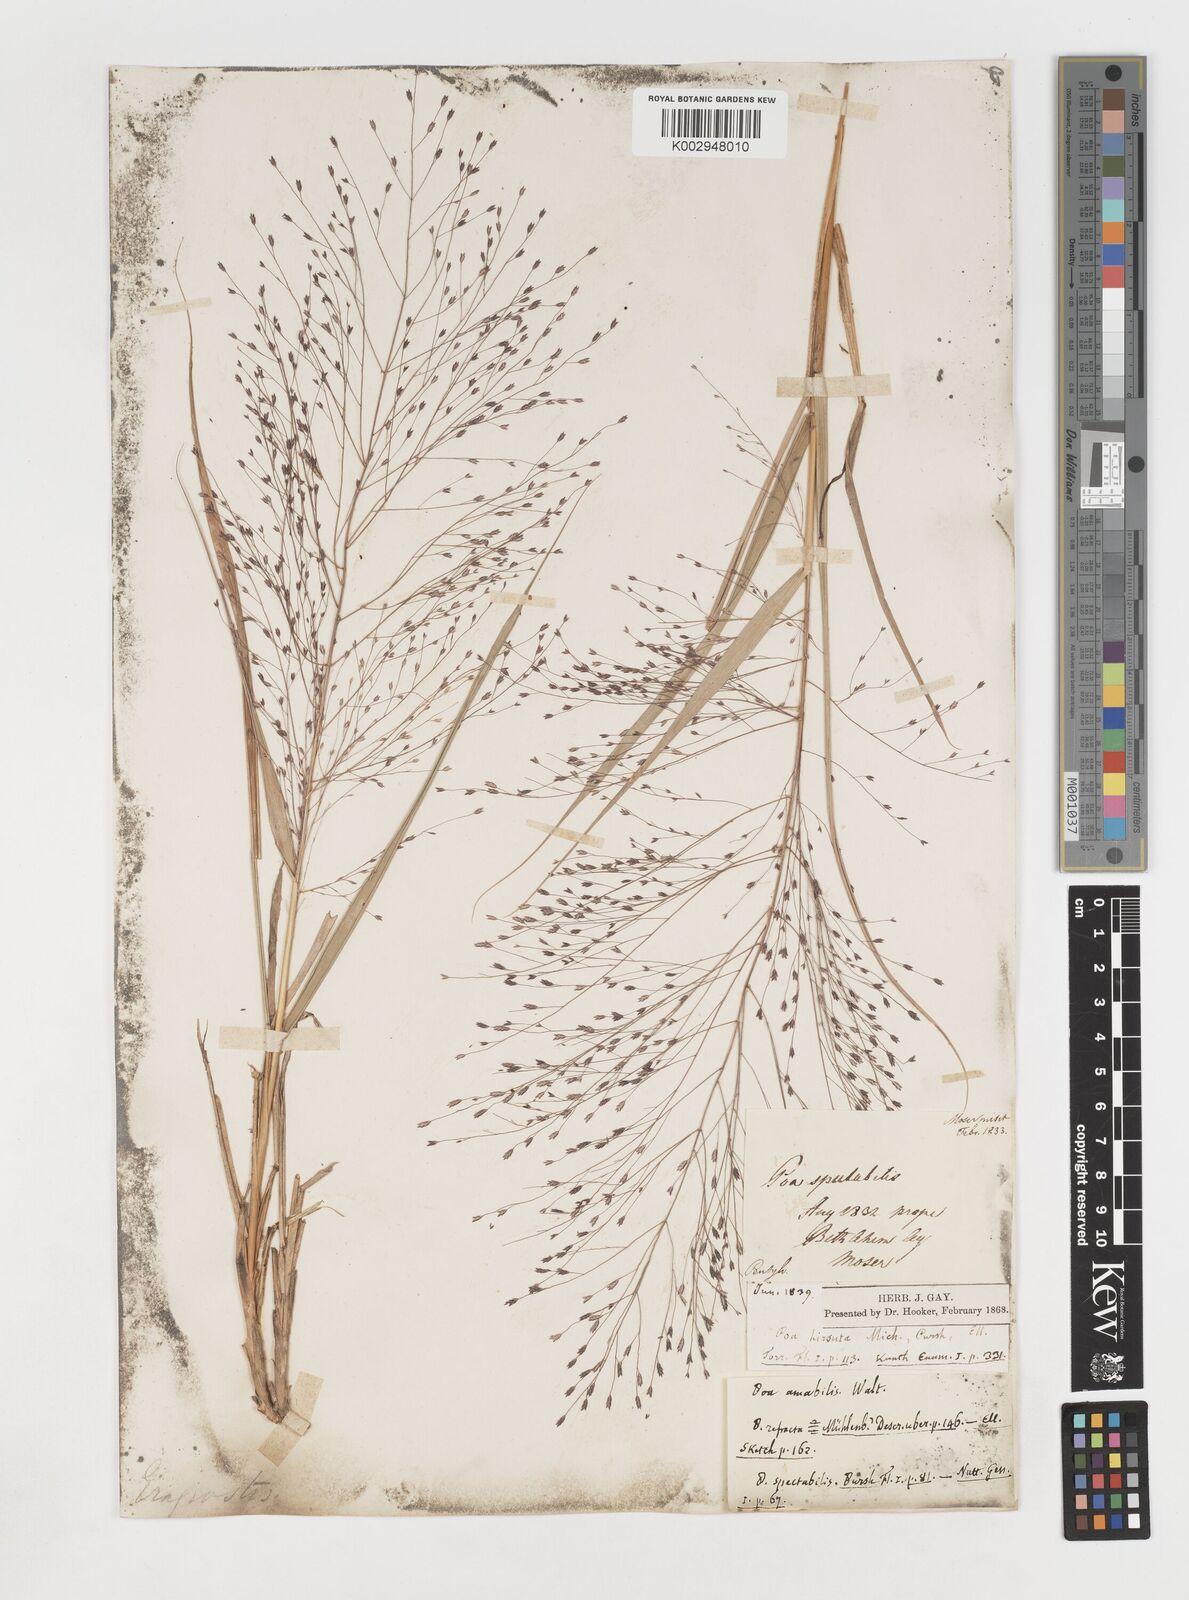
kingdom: Plantae
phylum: Tracheophyta
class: Liliopsida
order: Poales
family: Poaceae
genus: Eragrostis
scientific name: Eragrostis spectabilis
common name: Petticoat-climber
